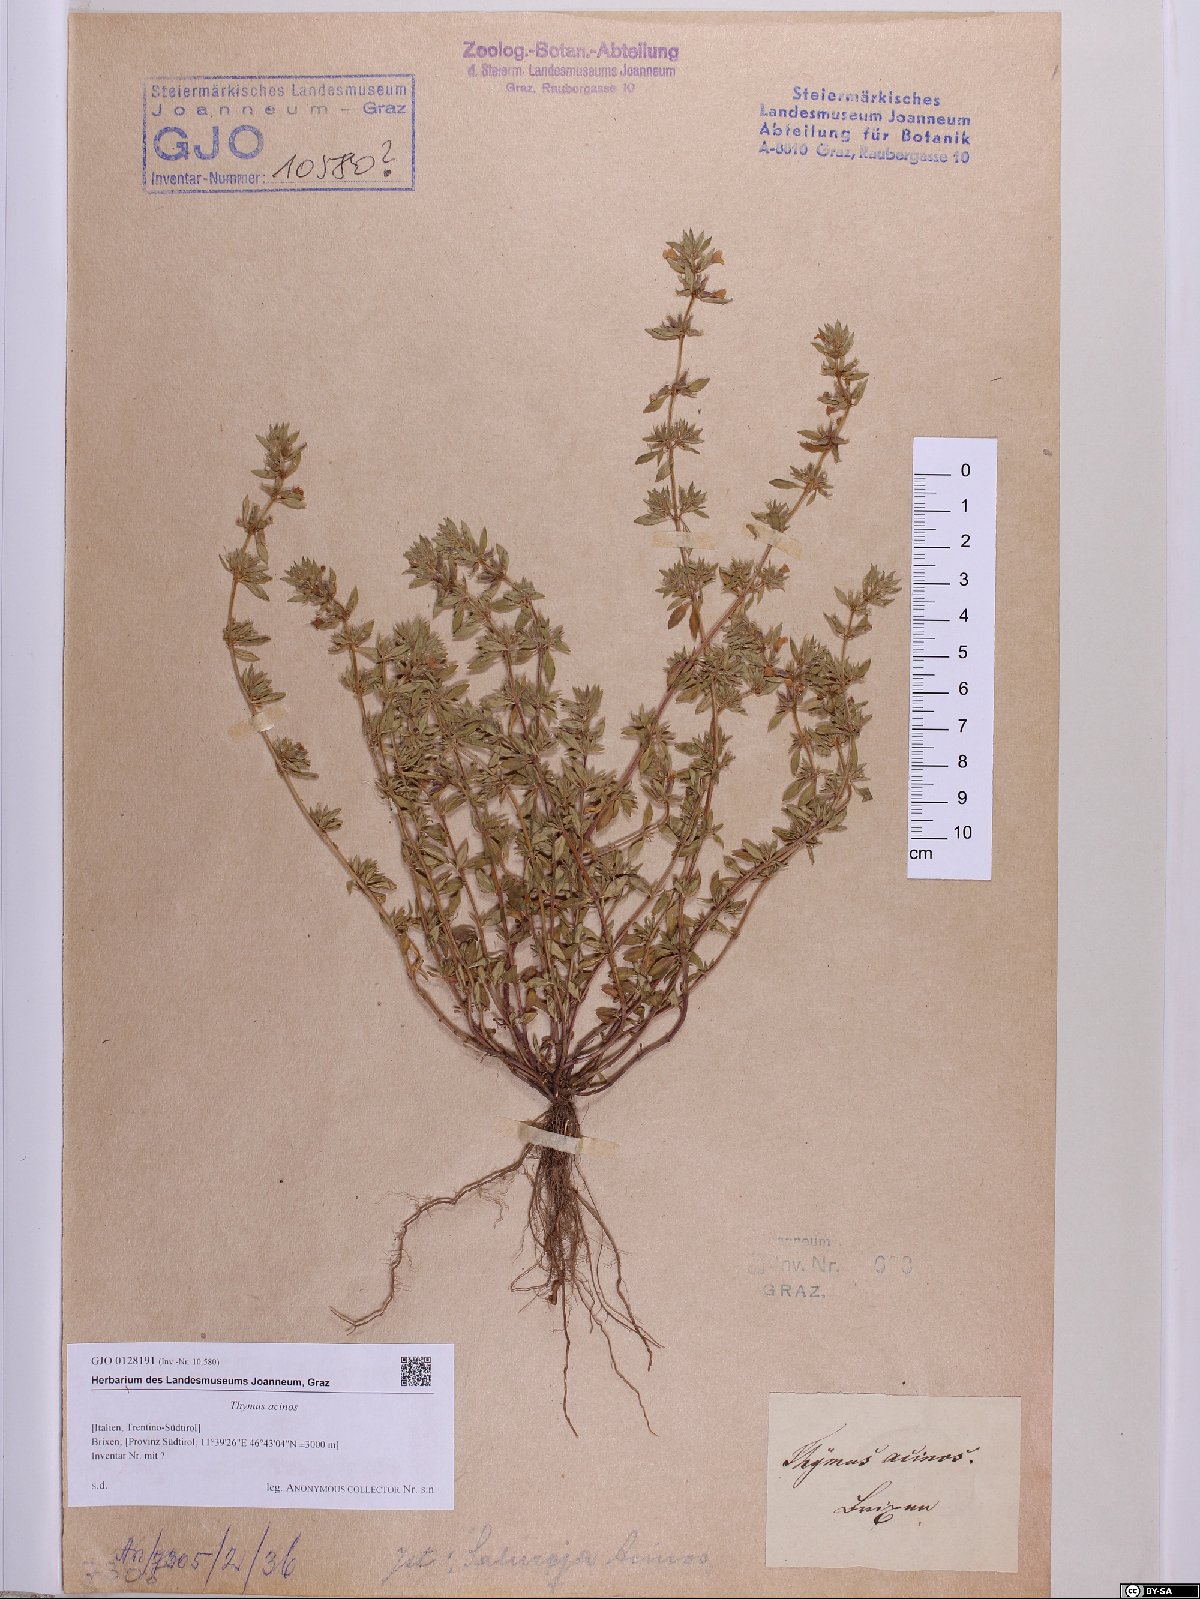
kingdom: Plantae
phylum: Tracheophyta
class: Magnoliopsida
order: Lamiales
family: Lamiaceae
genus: Clinopodium
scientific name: Clinopodium acinos
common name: Basil thyme
